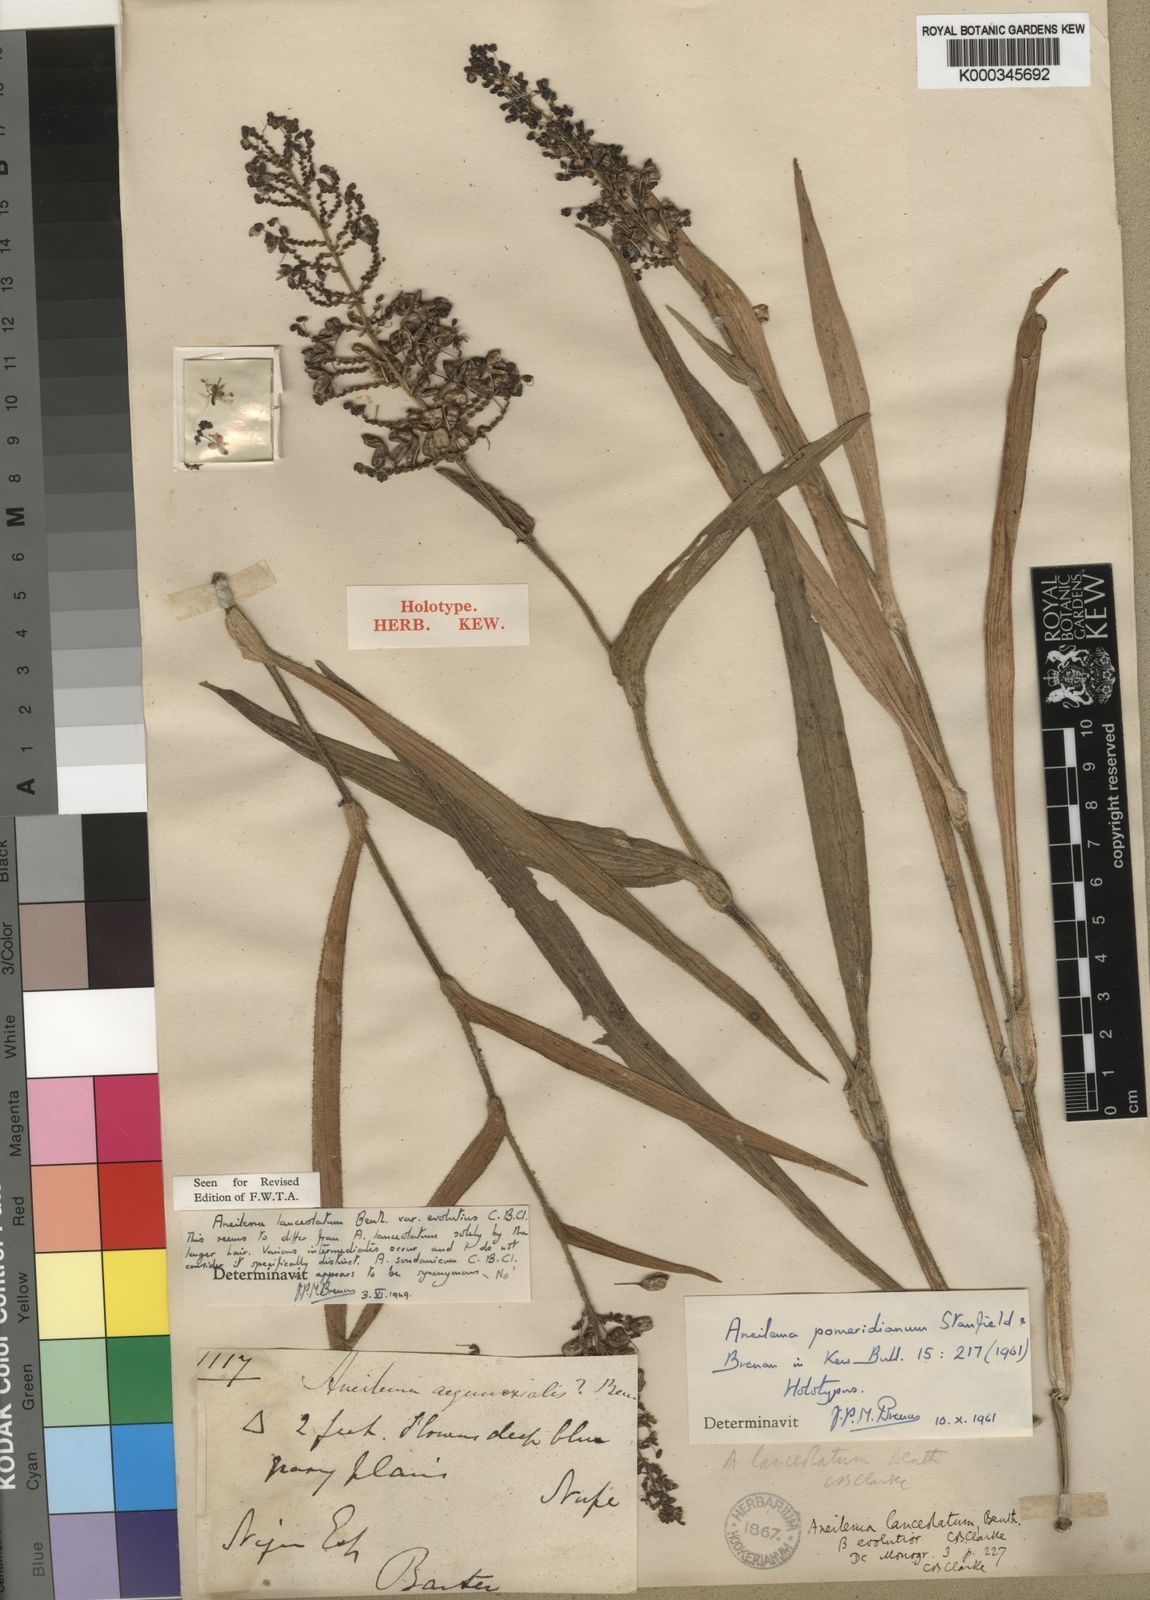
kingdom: Plantae
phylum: Tracheophyta
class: Liliopsida
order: Commelinales
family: Commelinaceae
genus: Aneilema
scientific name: Aneilema pomeridianum
